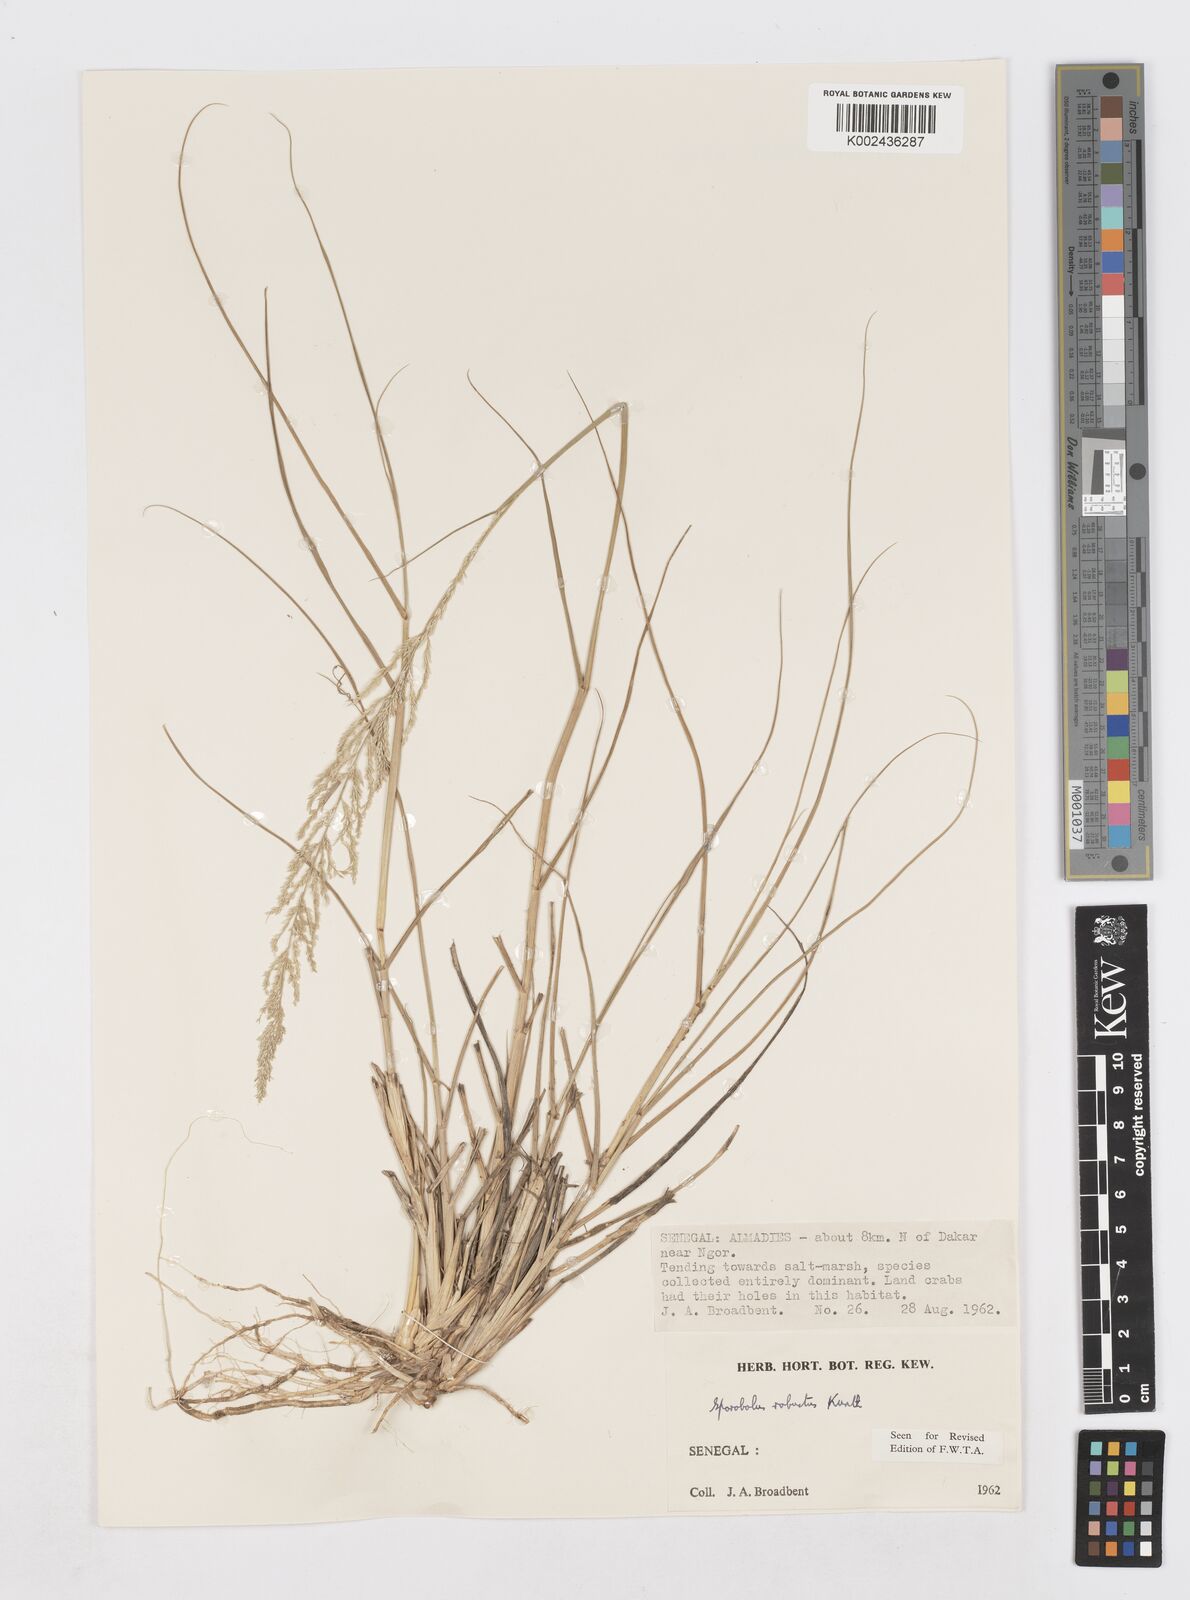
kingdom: Plantae
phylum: Tracheophyta
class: Liliopsida
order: Poales
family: Poaceae
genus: Sporobolus
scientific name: Sporobolus robustus
